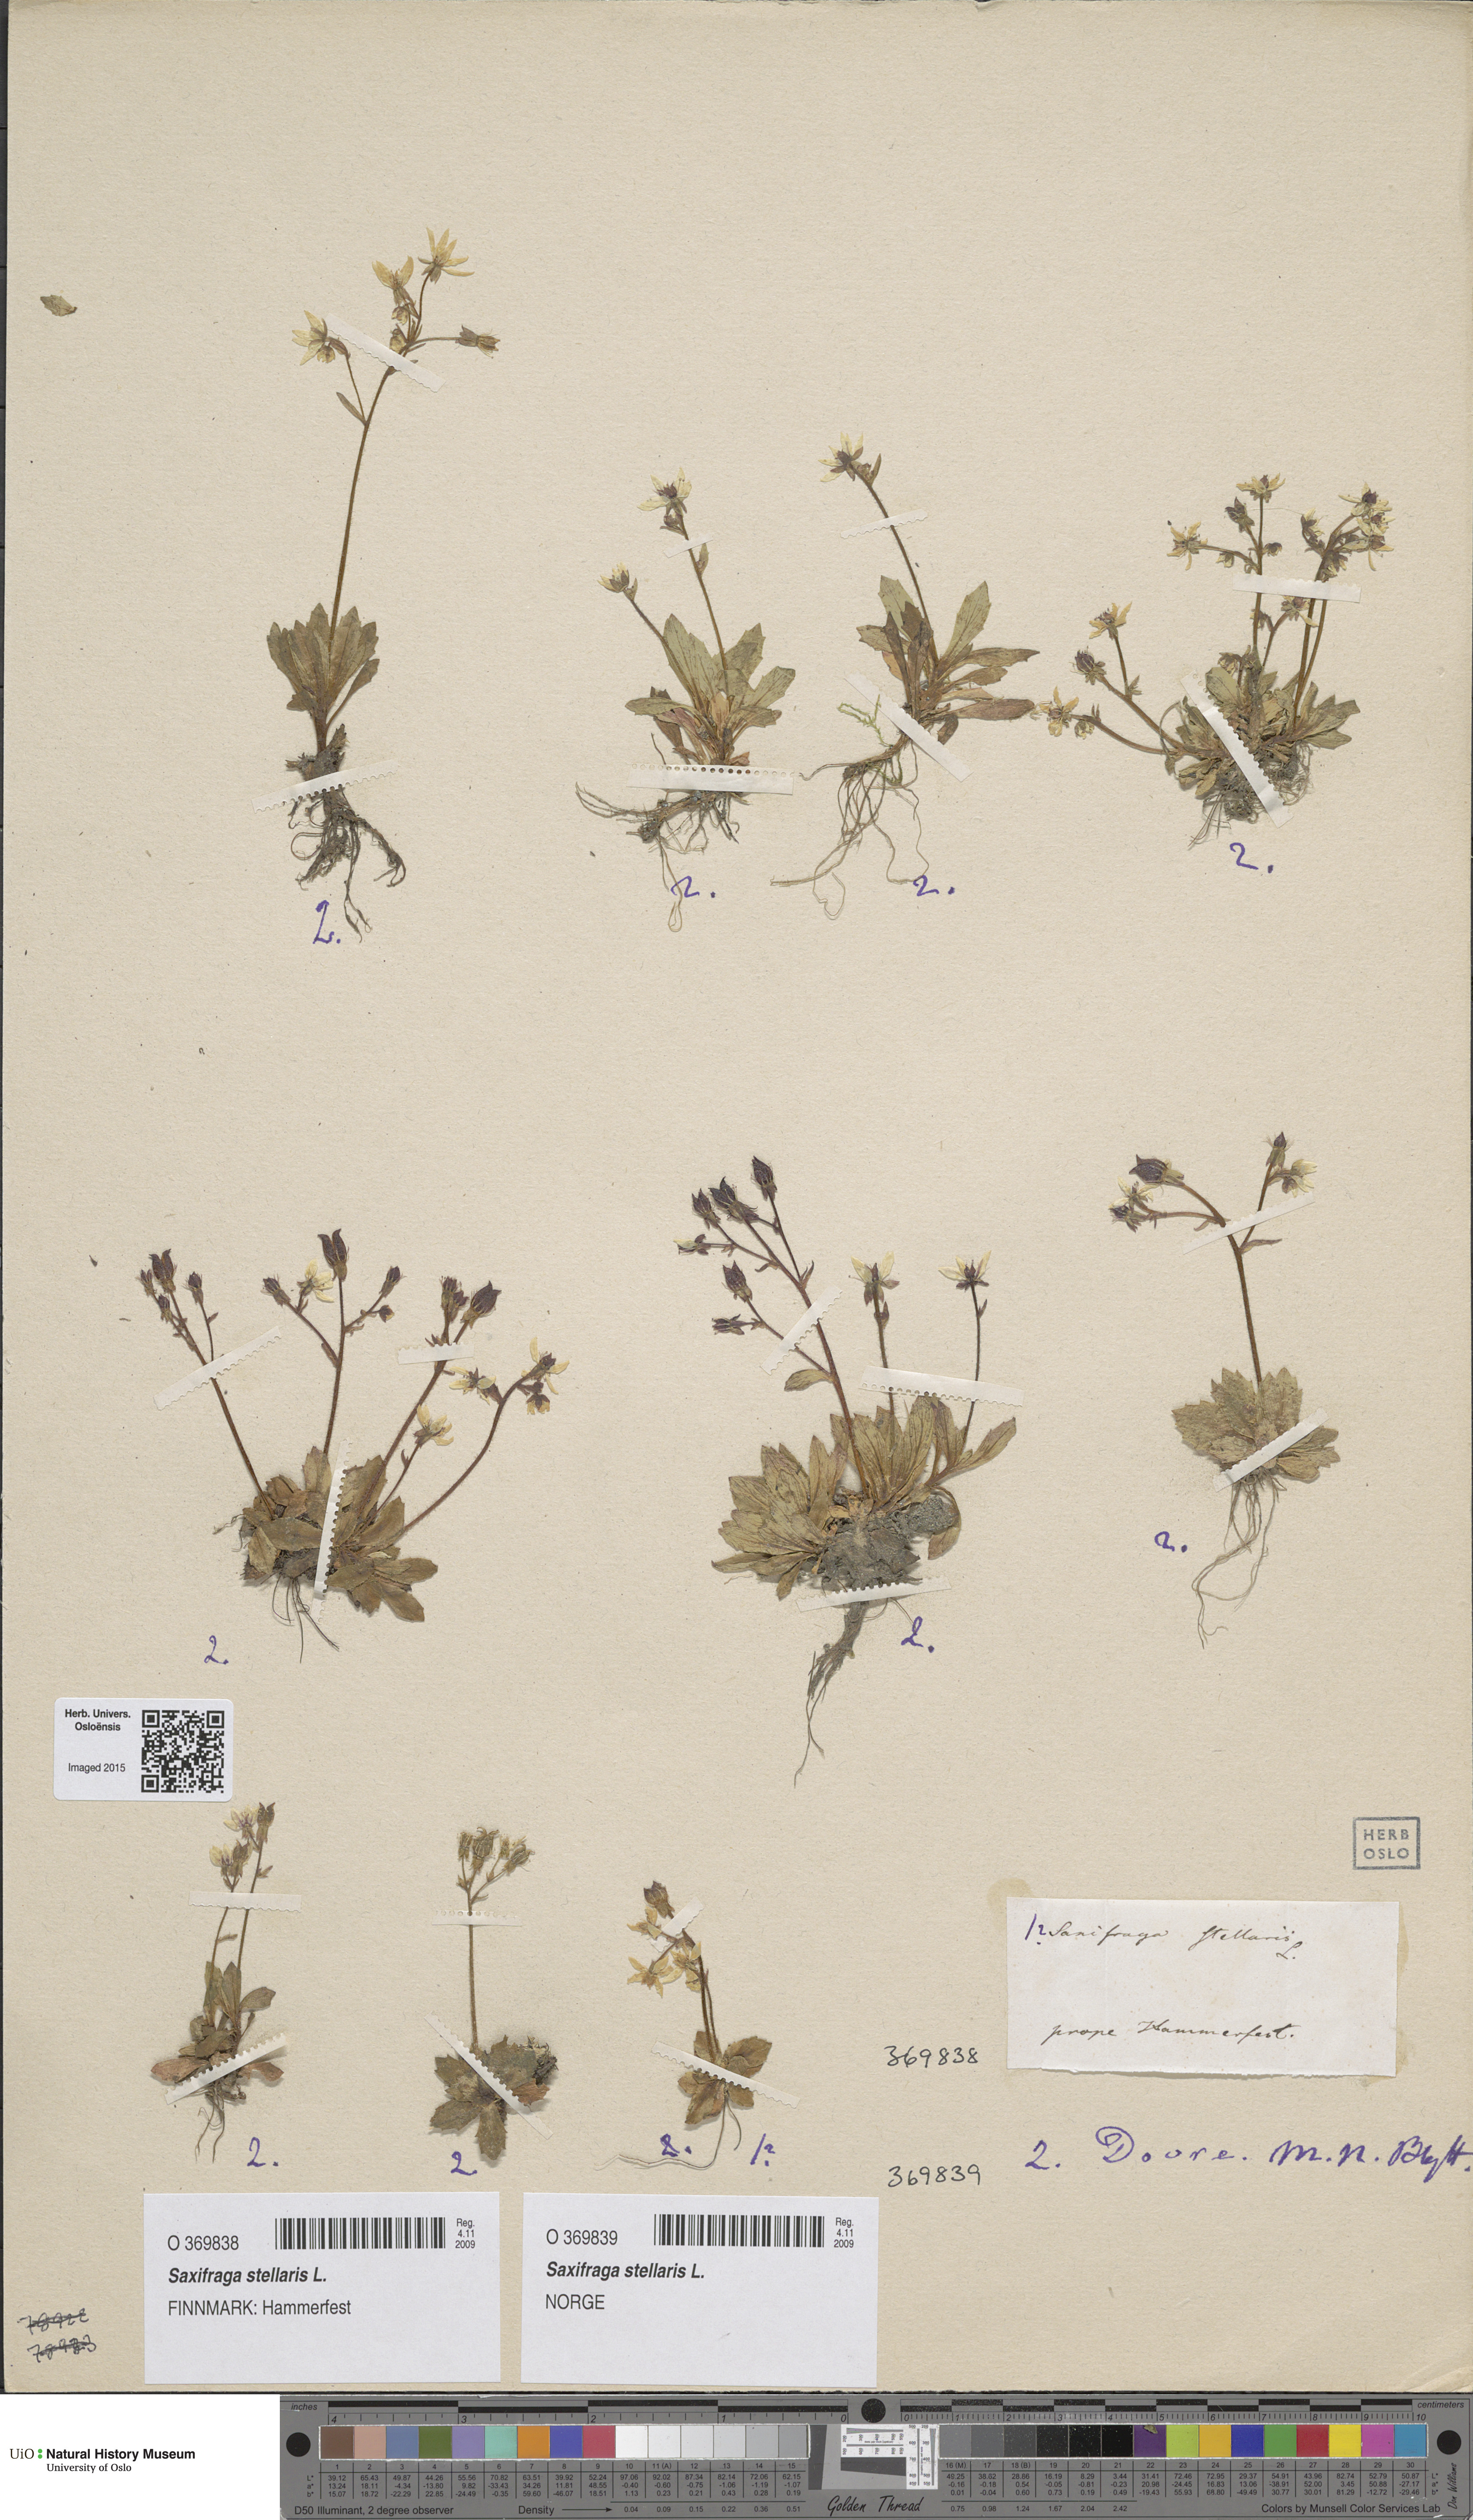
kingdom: Plantae
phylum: Tracheophyta
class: Magnoliopsida
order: Saxifragales
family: Saxifragaceae
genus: Micranthes
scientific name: Micranthes stellaris
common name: Starry saxifrage
